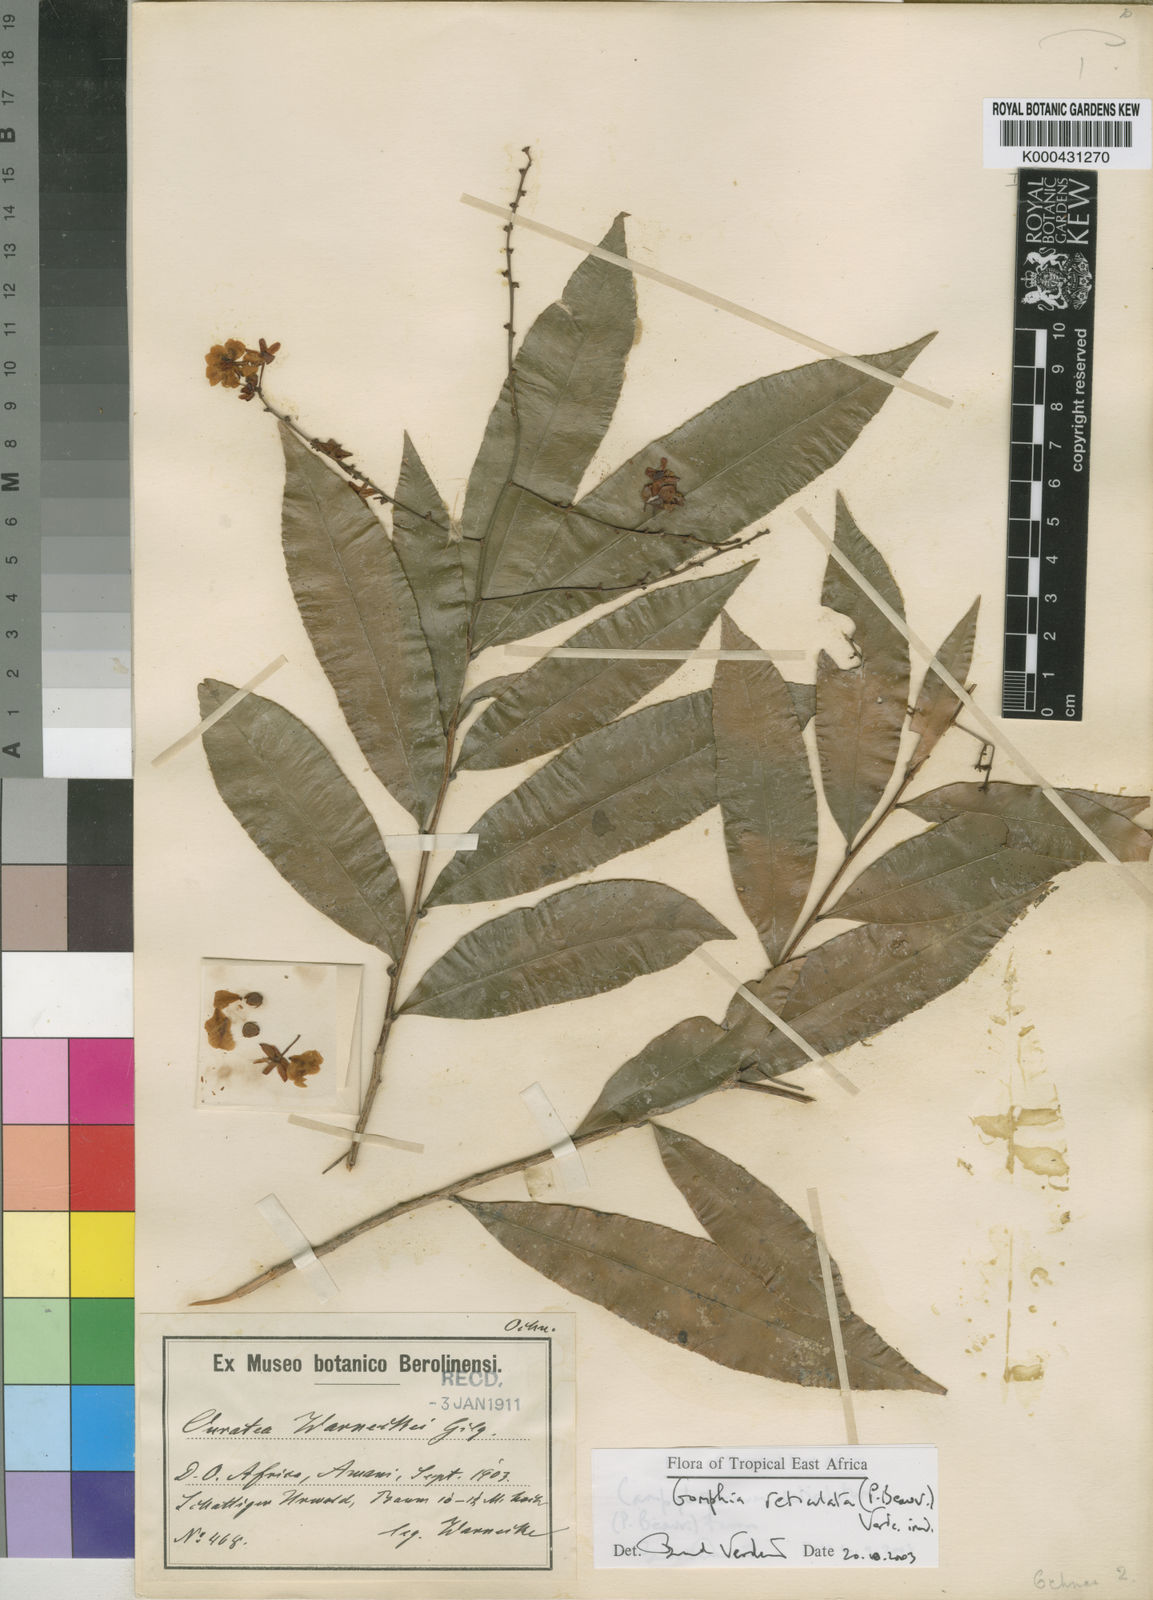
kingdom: Plantae
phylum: Tracheophyta
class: Magnoliopsida
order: Malpighiales
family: Ochnaceae
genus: Campylospermum
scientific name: Campylospermum reticulatum
